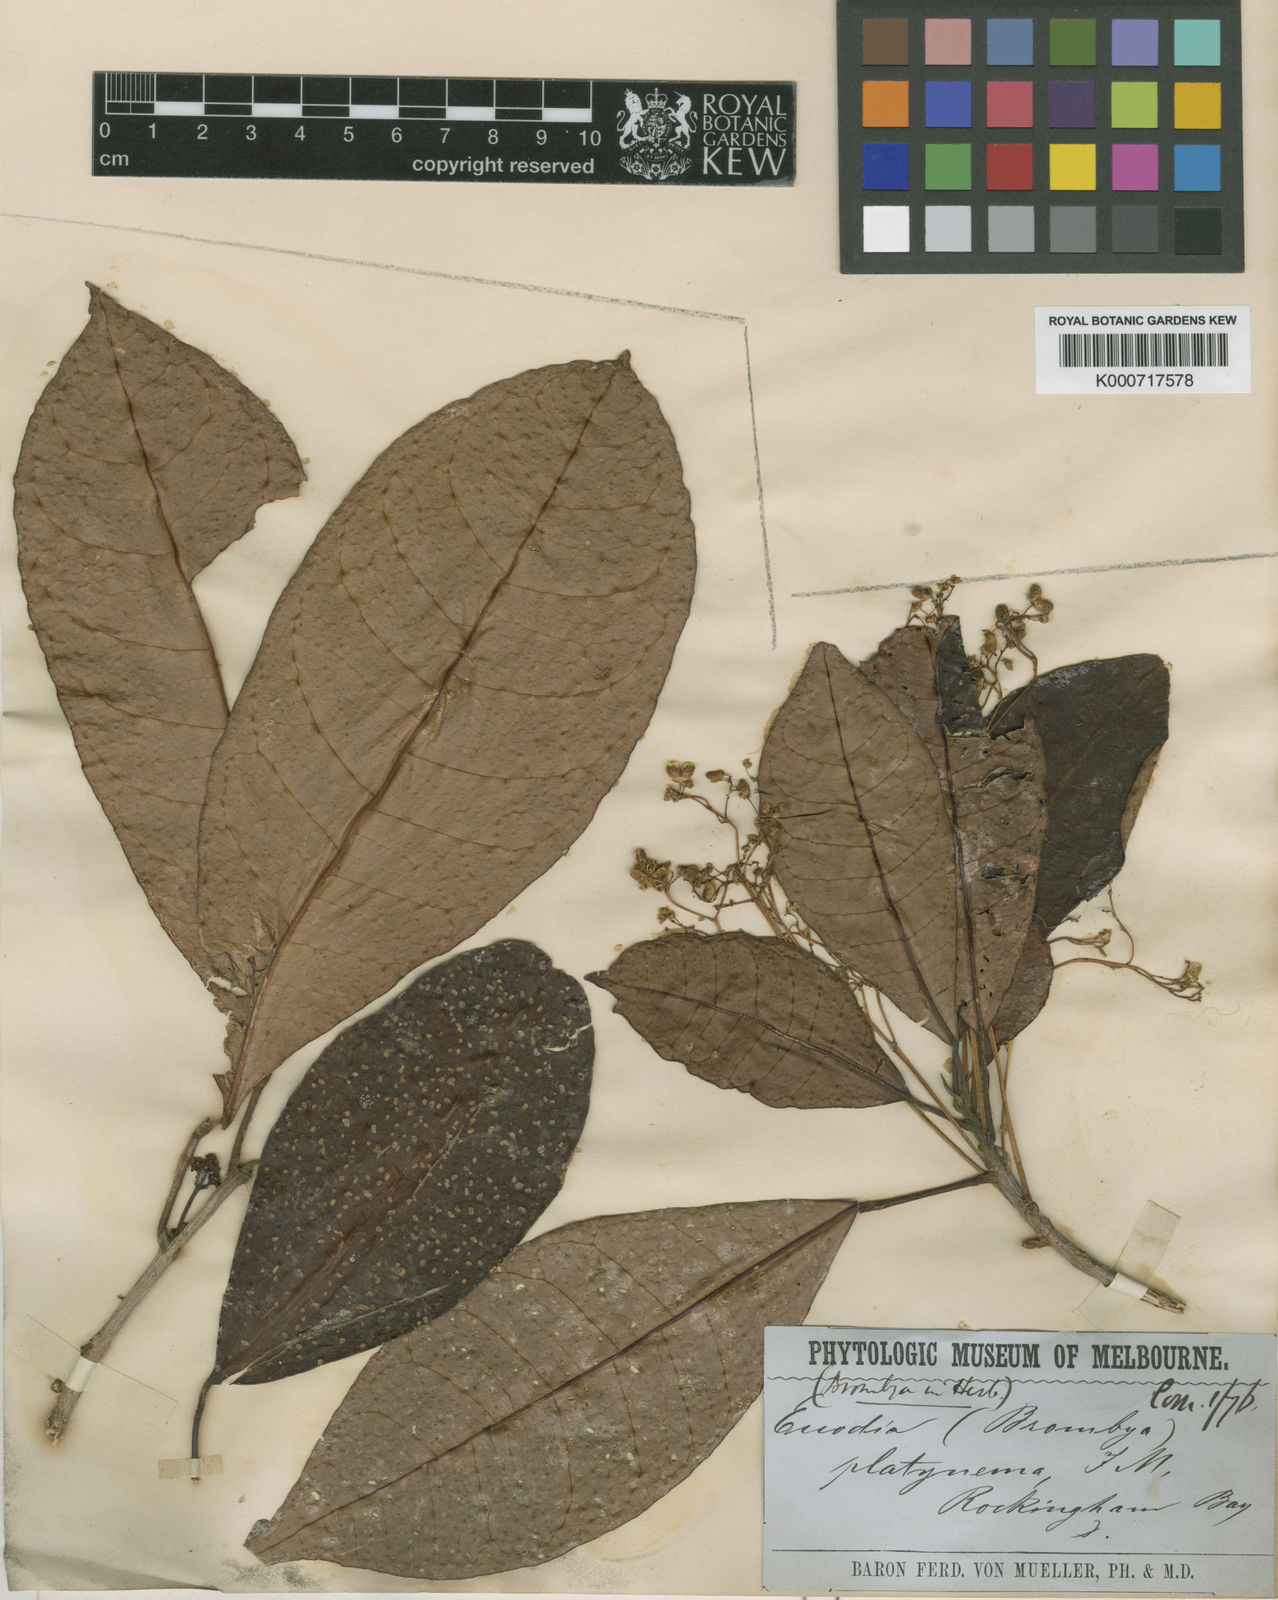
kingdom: Plantae
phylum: Tracheophyta
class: Magnoliopsida
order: Sapindales
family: Rutaceae
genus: Brombya
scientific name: Brombya platynema
